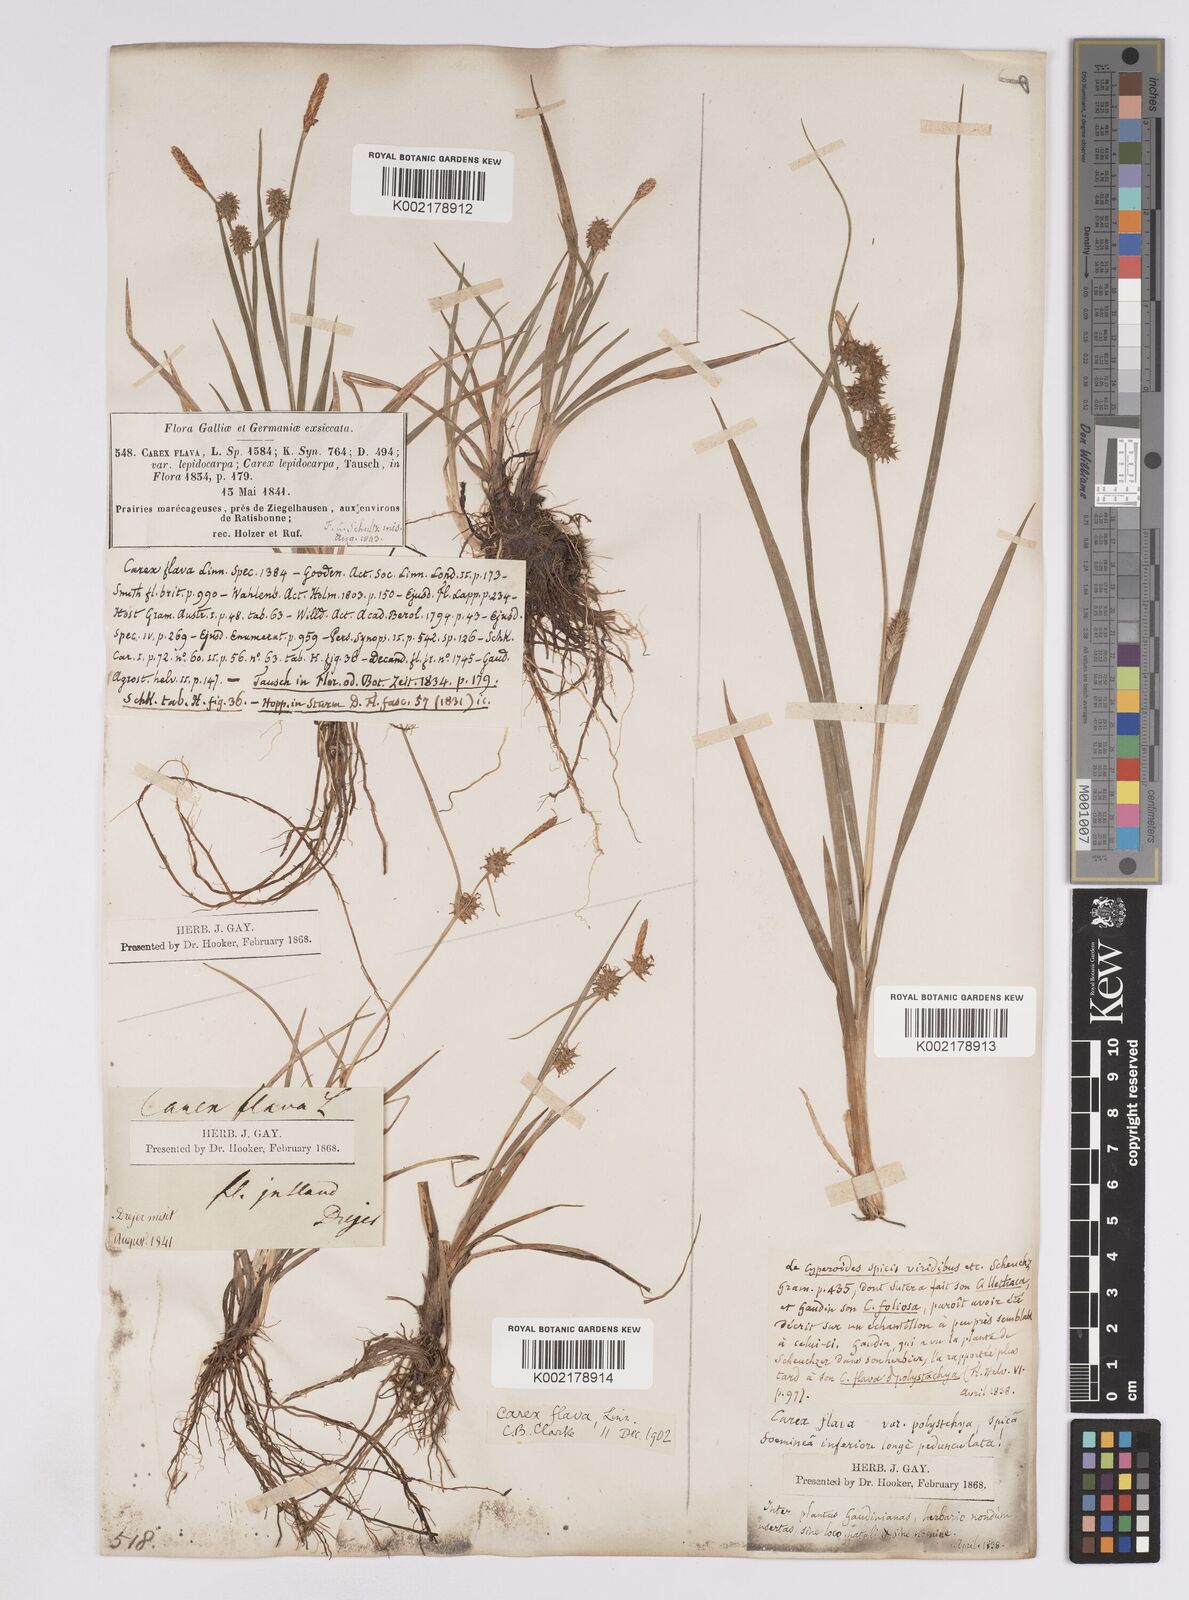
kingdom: Plantae
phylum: Tracheophyta
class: Liliopsida
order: Poales
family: Cyperaceae
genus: Carex
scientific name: Carex lepidocarpa
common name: Long-stalked yellow-sedge
